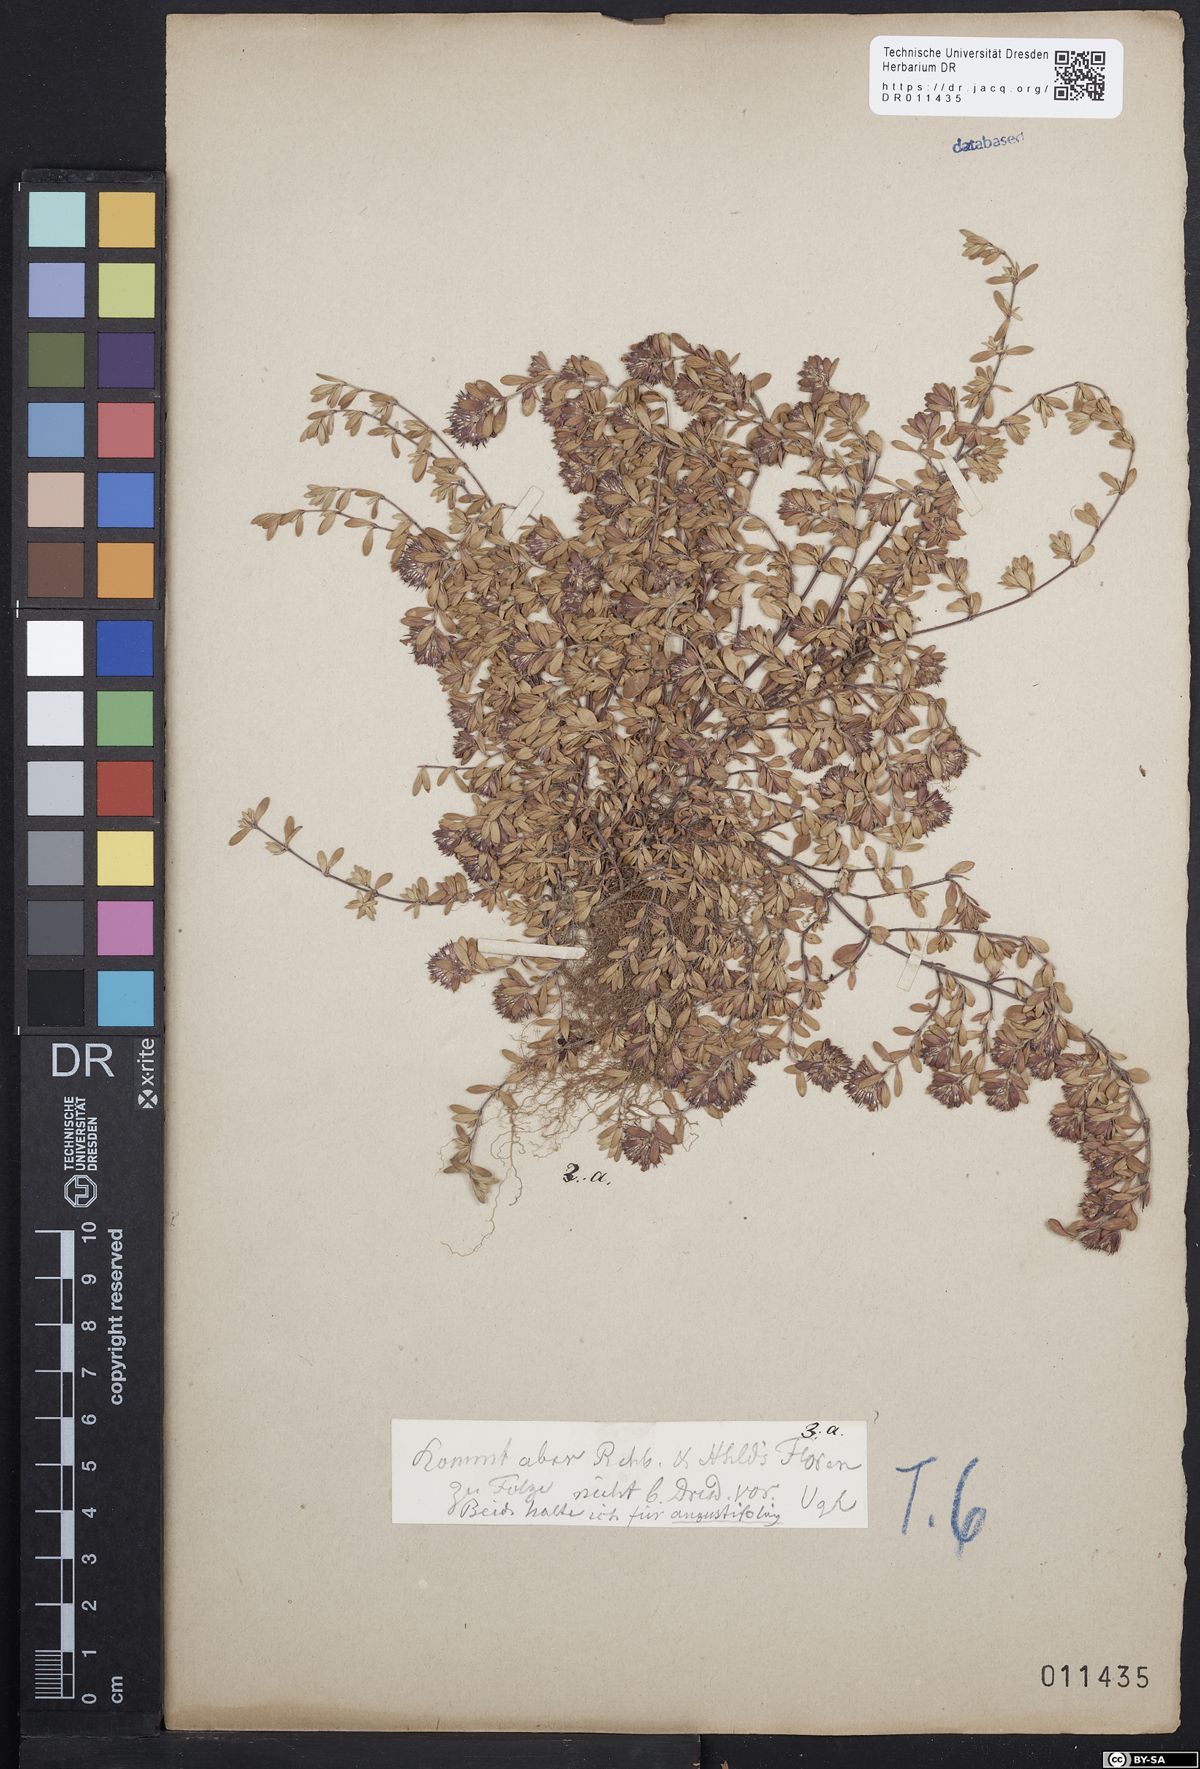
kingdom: Plantae
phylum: Tracheophyta
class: Magnoliopsida
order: Lamiales
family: Lamiaceae
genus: Thymus
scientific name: Thymus serpyllum
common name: Breckland thyme
